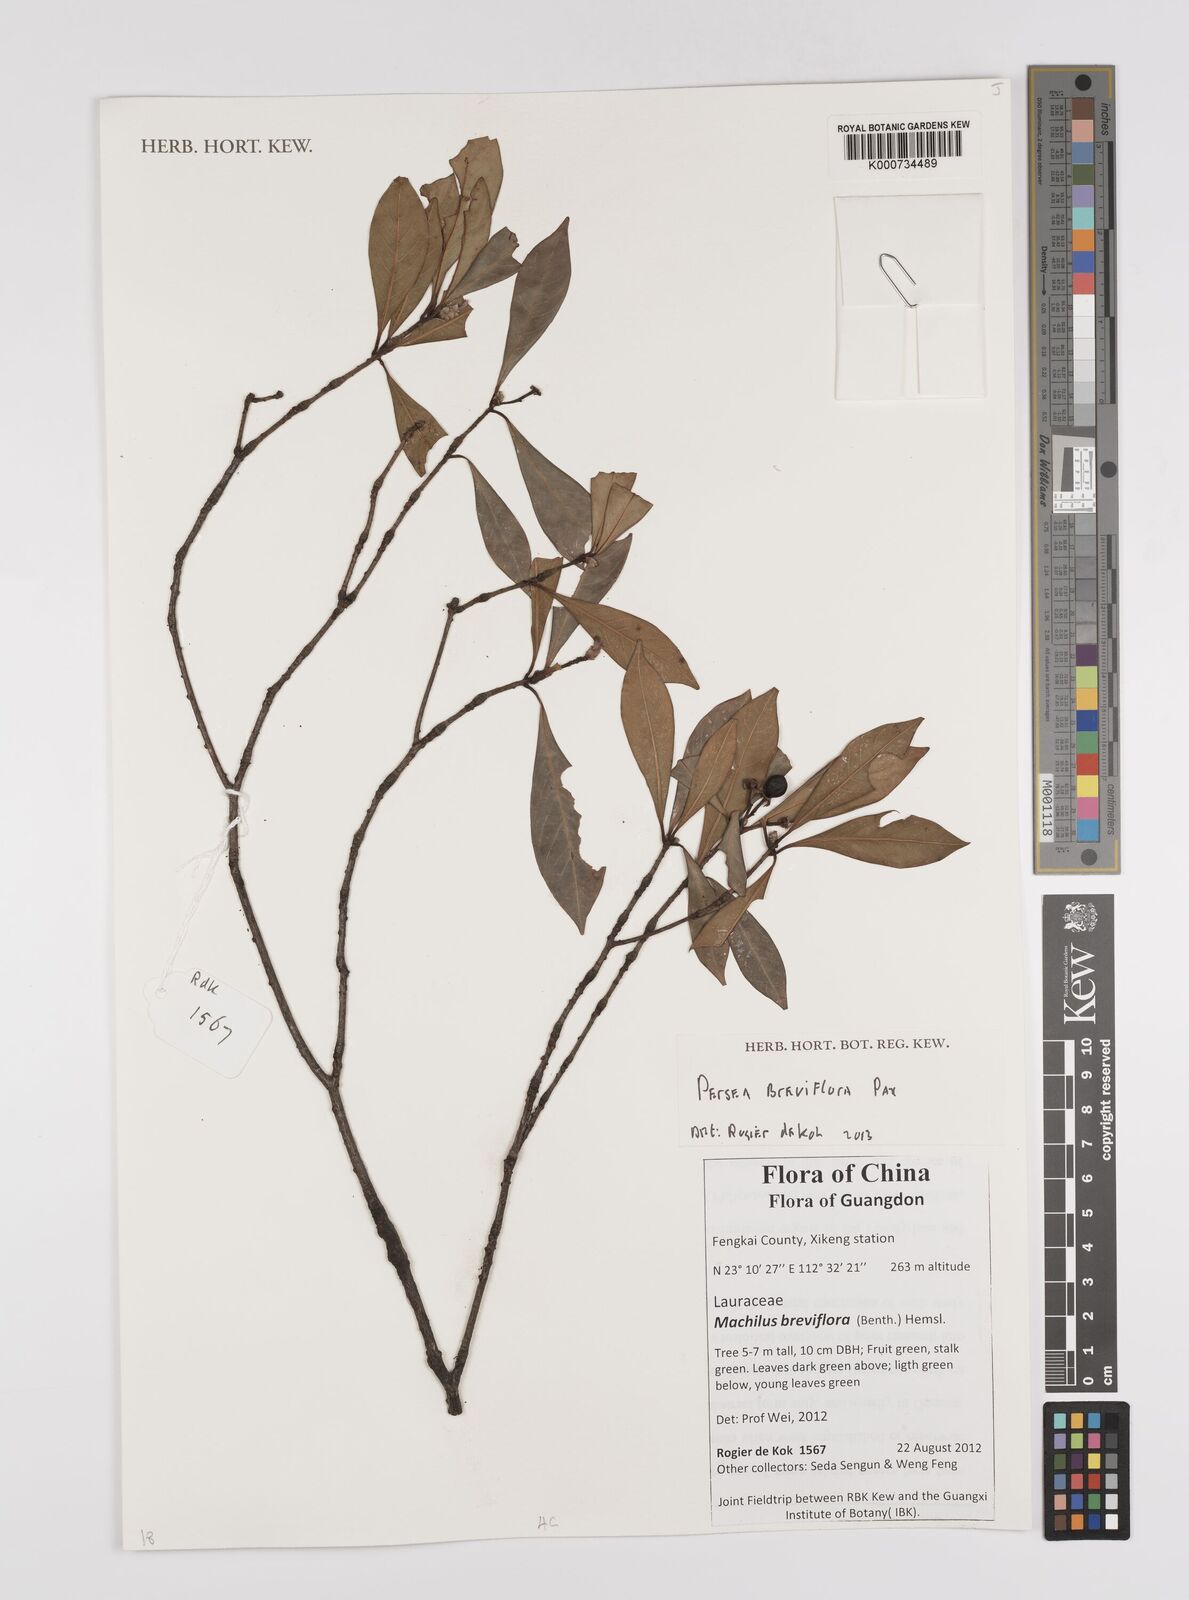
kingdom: Plantae
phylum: Tracheophyta
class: Magnoliopsida
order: Laurales
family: Lauraceae
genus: Persea
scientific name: Persea
